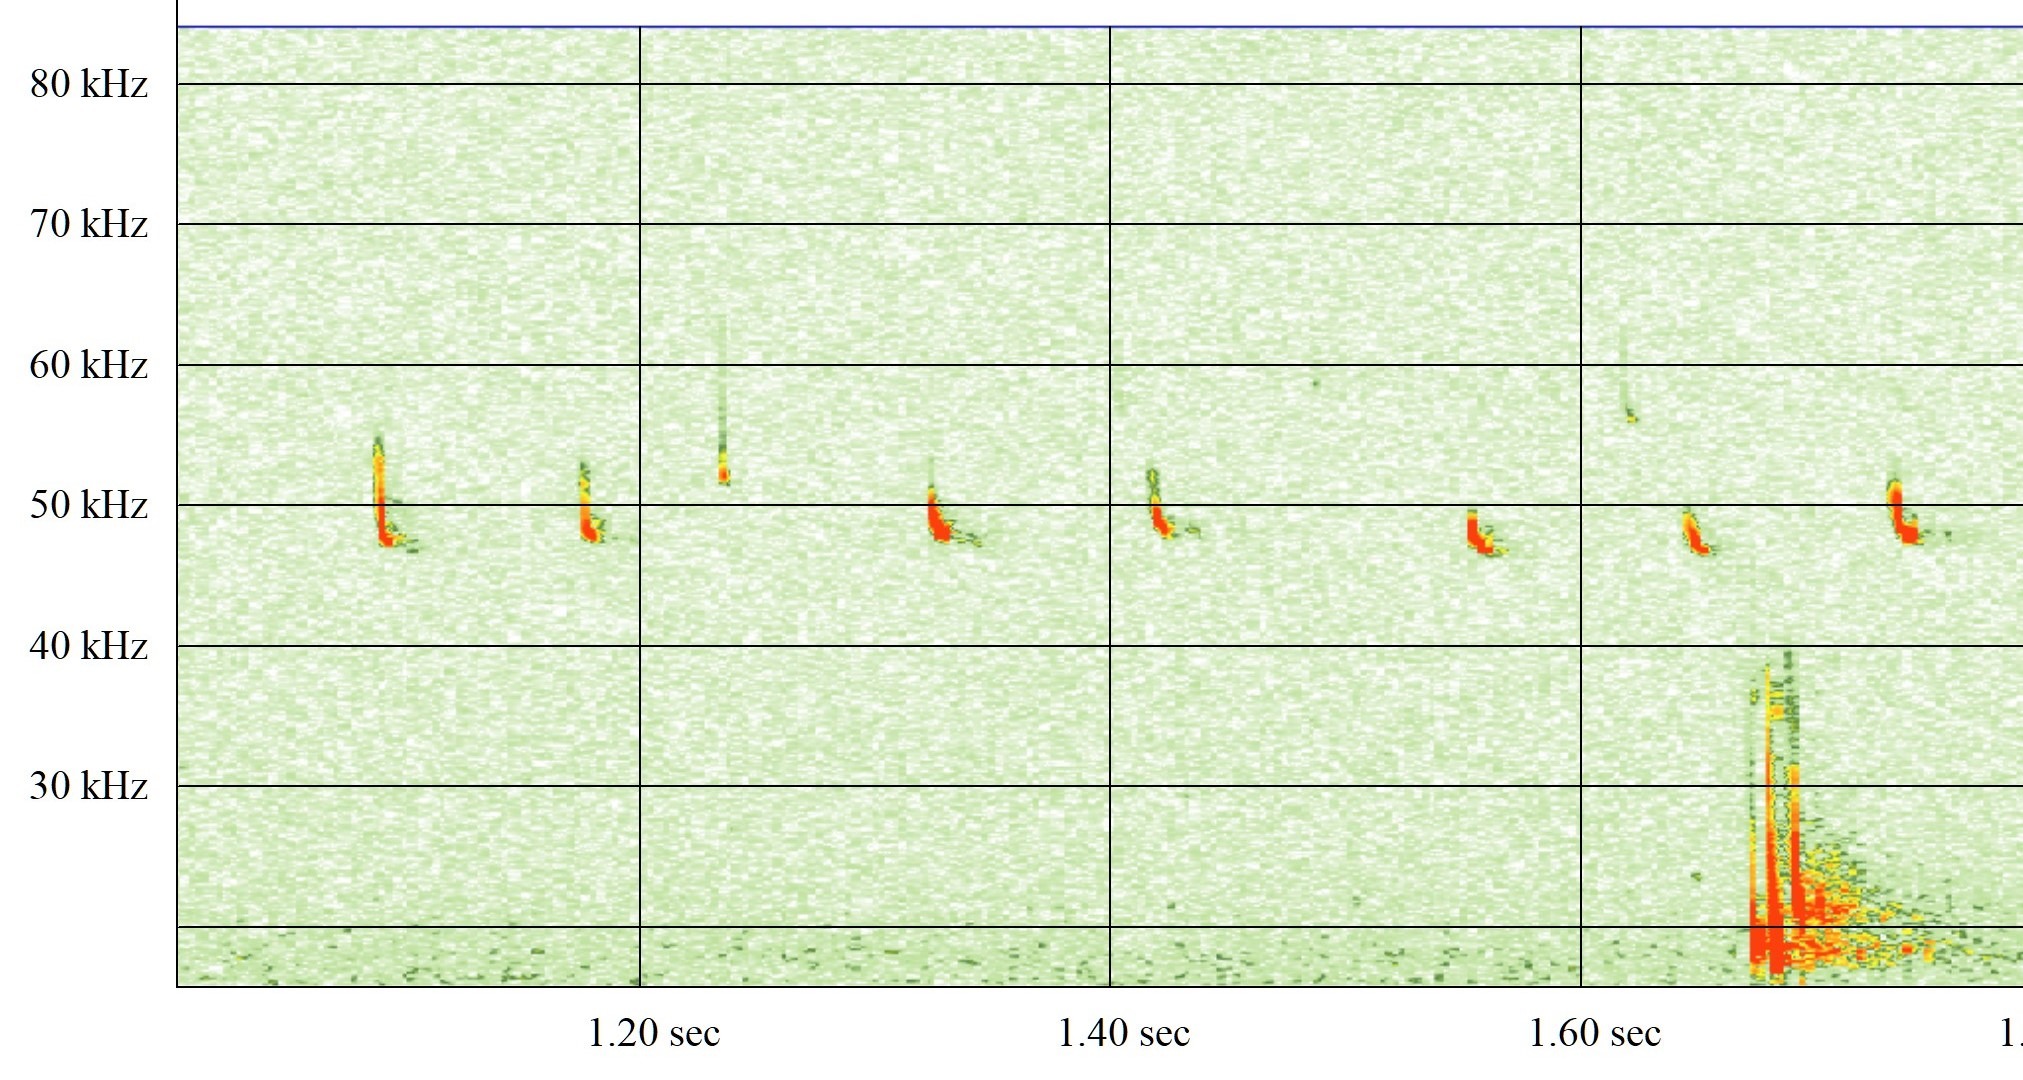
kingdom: Animalia
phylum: Chordata
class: Mammalia
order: Chiroptera
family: Vespertilionidae
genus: Pipistrellus
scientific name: Pipistrellus pipistrellus
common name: Pipistrelflagermus
